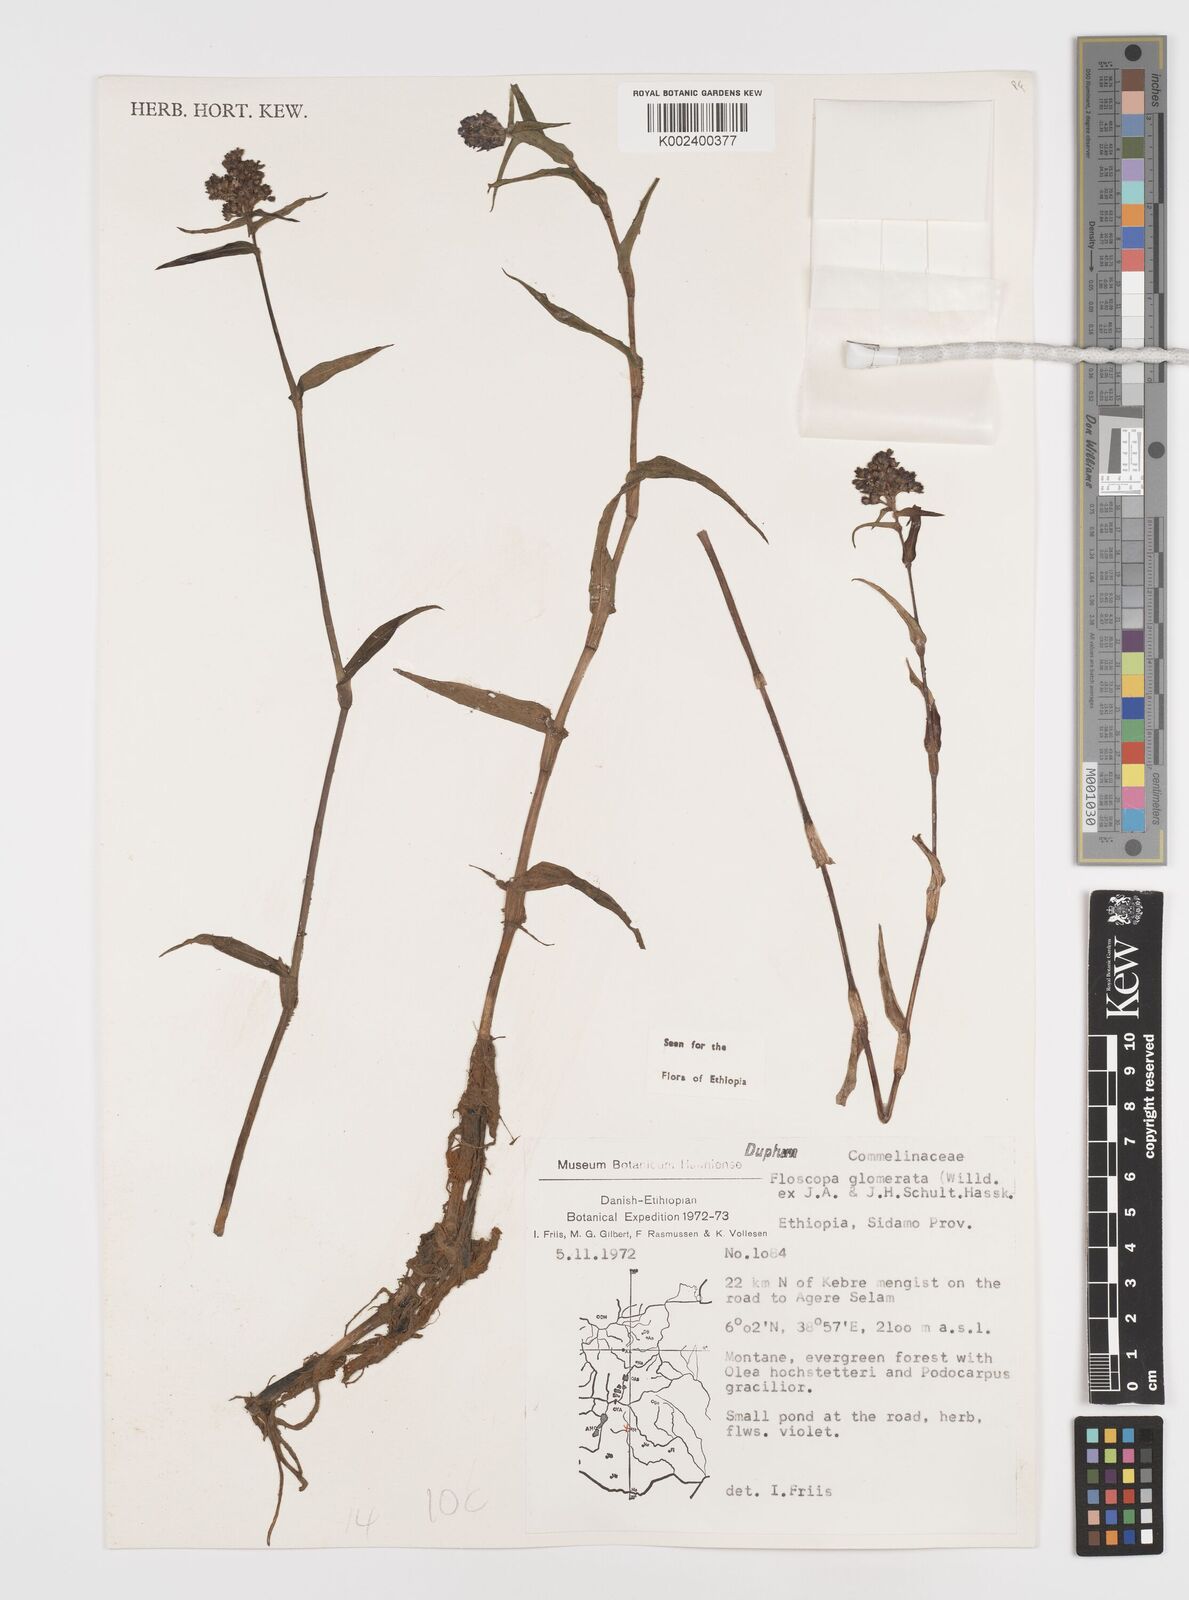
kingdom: Plantae
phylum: Tracheophyta
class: Liliopsida
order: Commelinales
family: Commelinaceae
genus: Floscopa
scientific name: Floscopa glomerata
